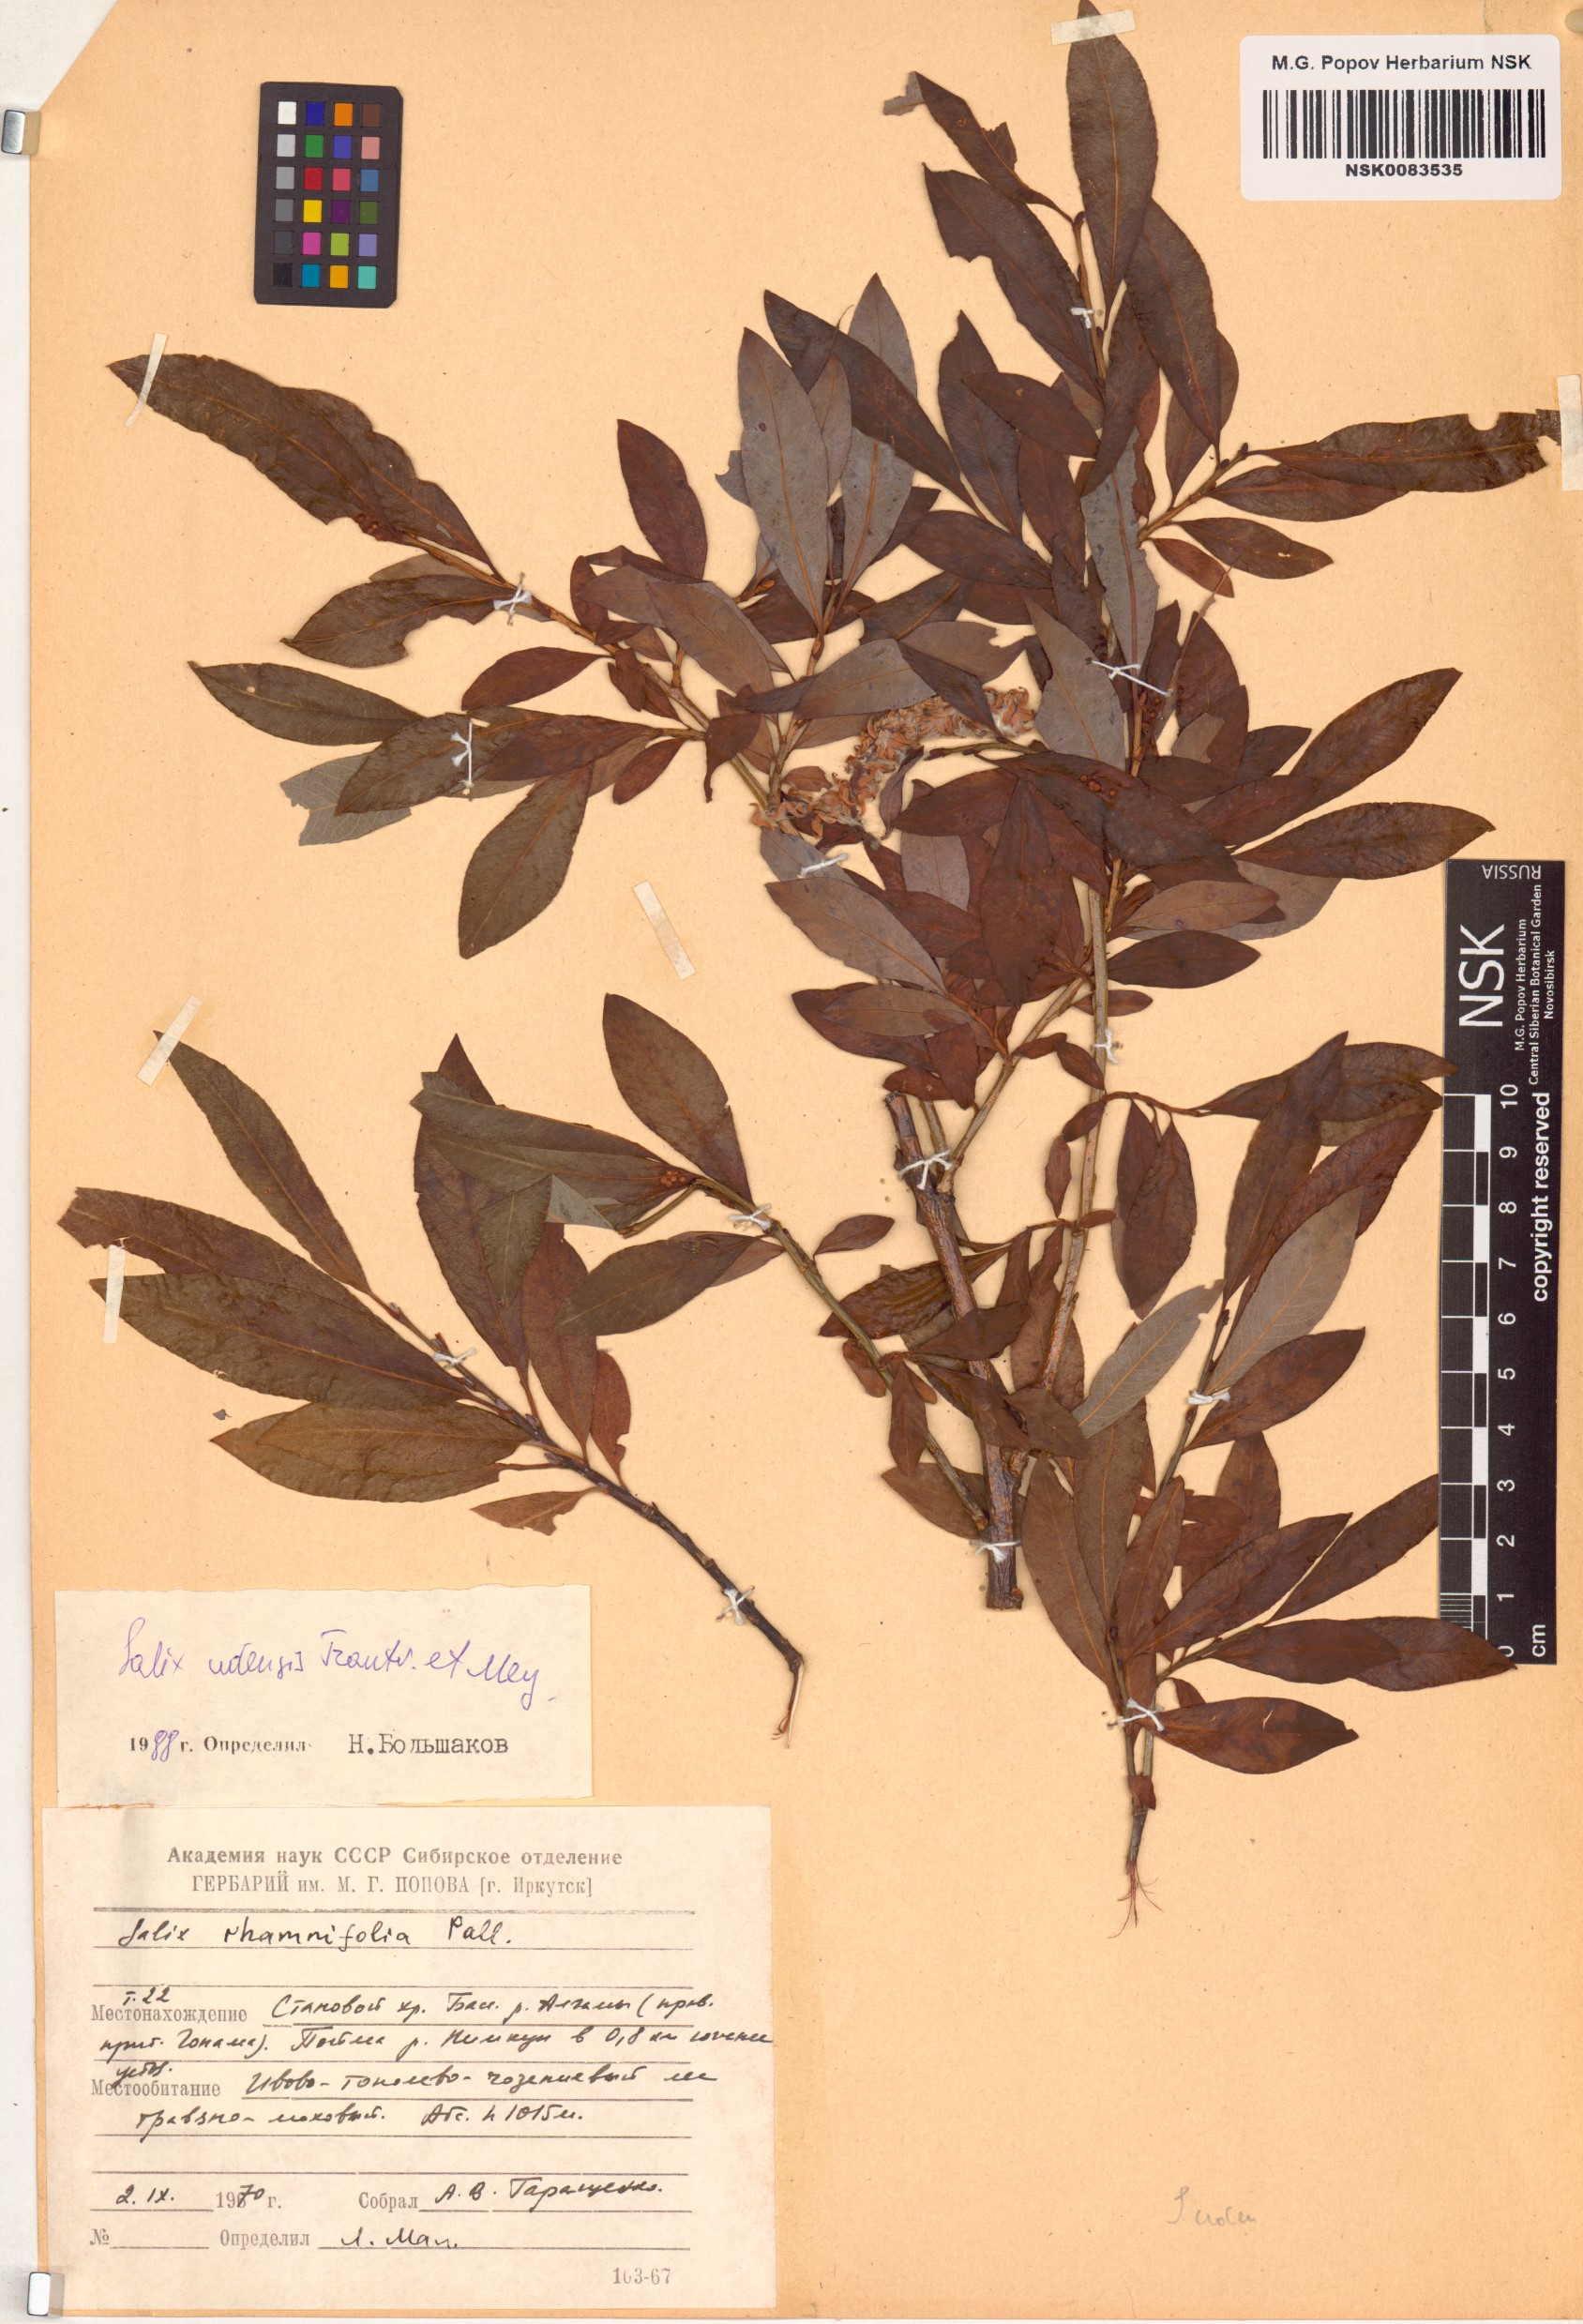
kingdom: Plantae
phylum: Tracheophyta
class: Magnoliopsida
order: Malpighiales
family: Salicaceae
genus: Salix
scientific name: Salix udensis
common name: Sachalin willow
